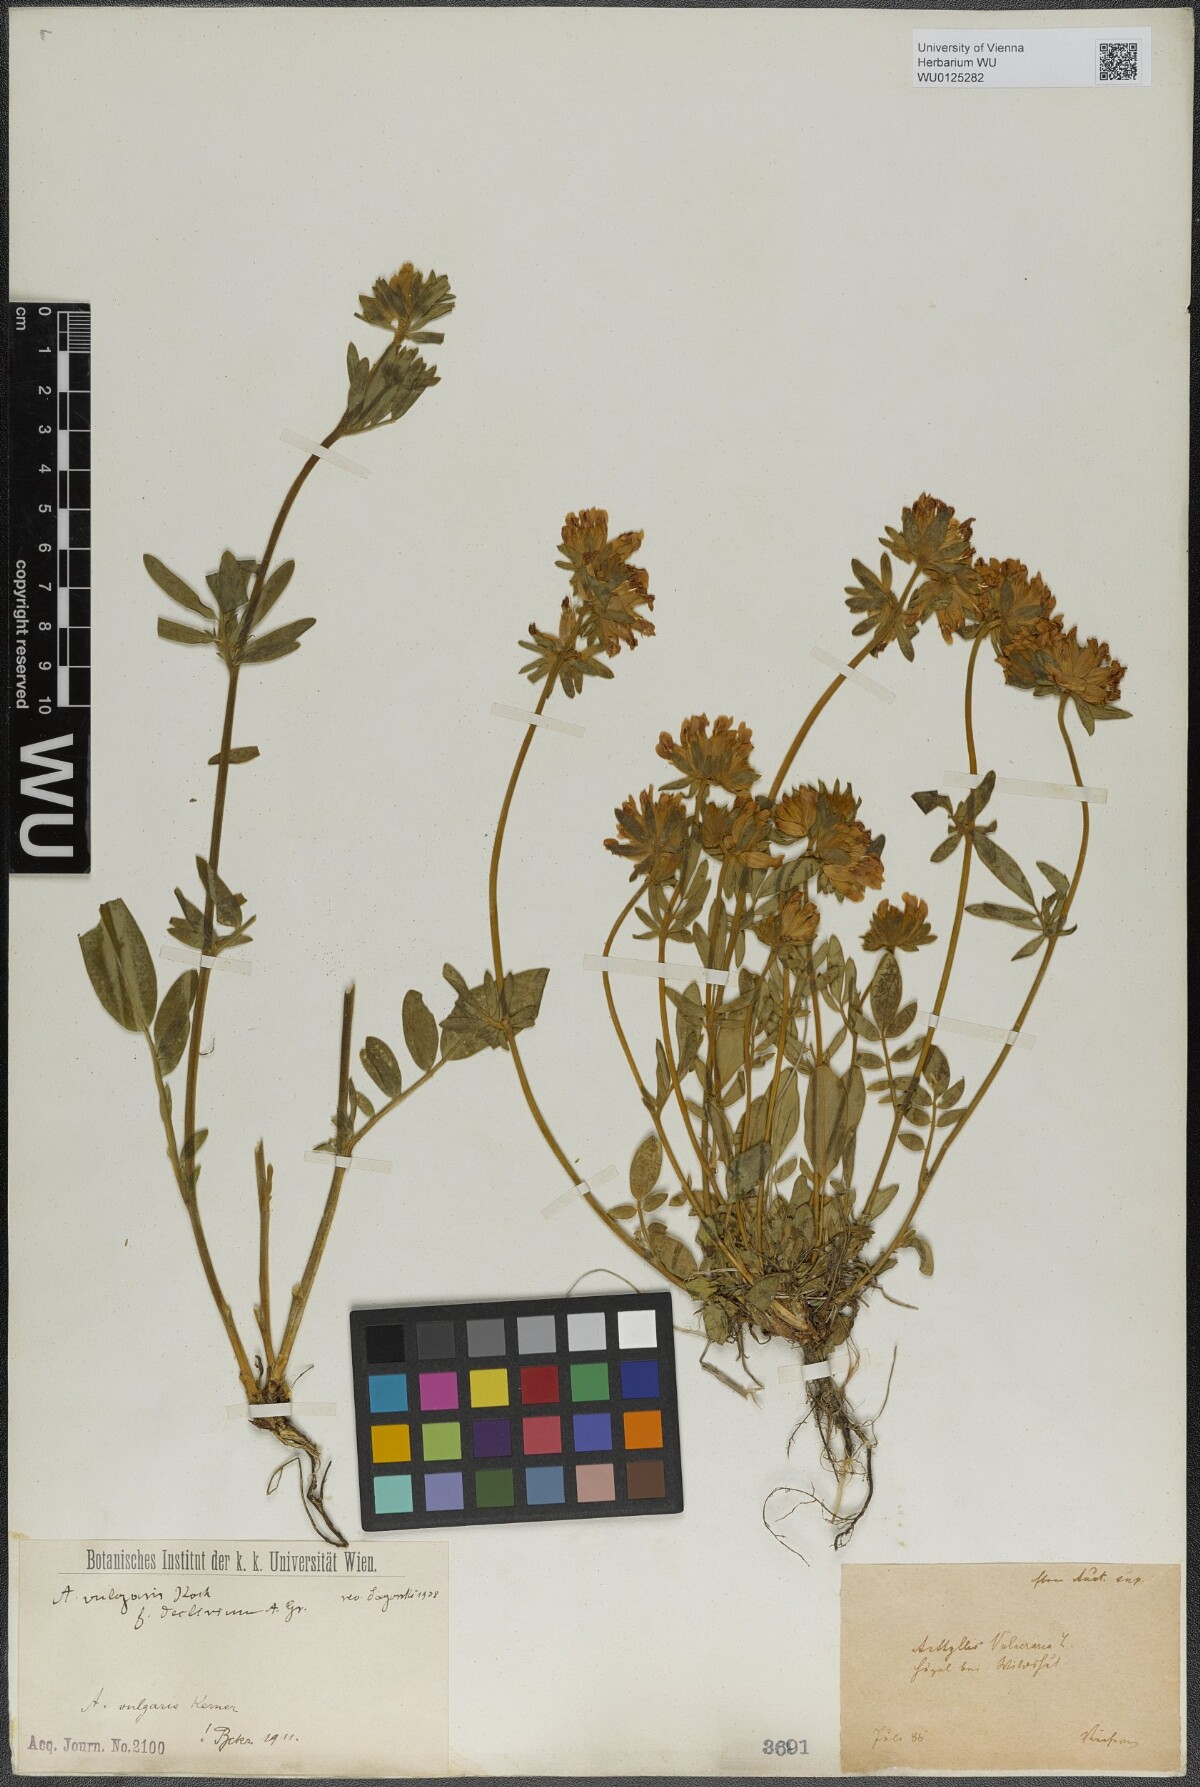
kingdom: Plantae
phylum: Tracheophyta
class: Magnoliopsida
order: Fabales
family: Fabaceae
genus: Anthyllis
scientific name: Anthyllis vulneraria
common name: Kidney vetch
